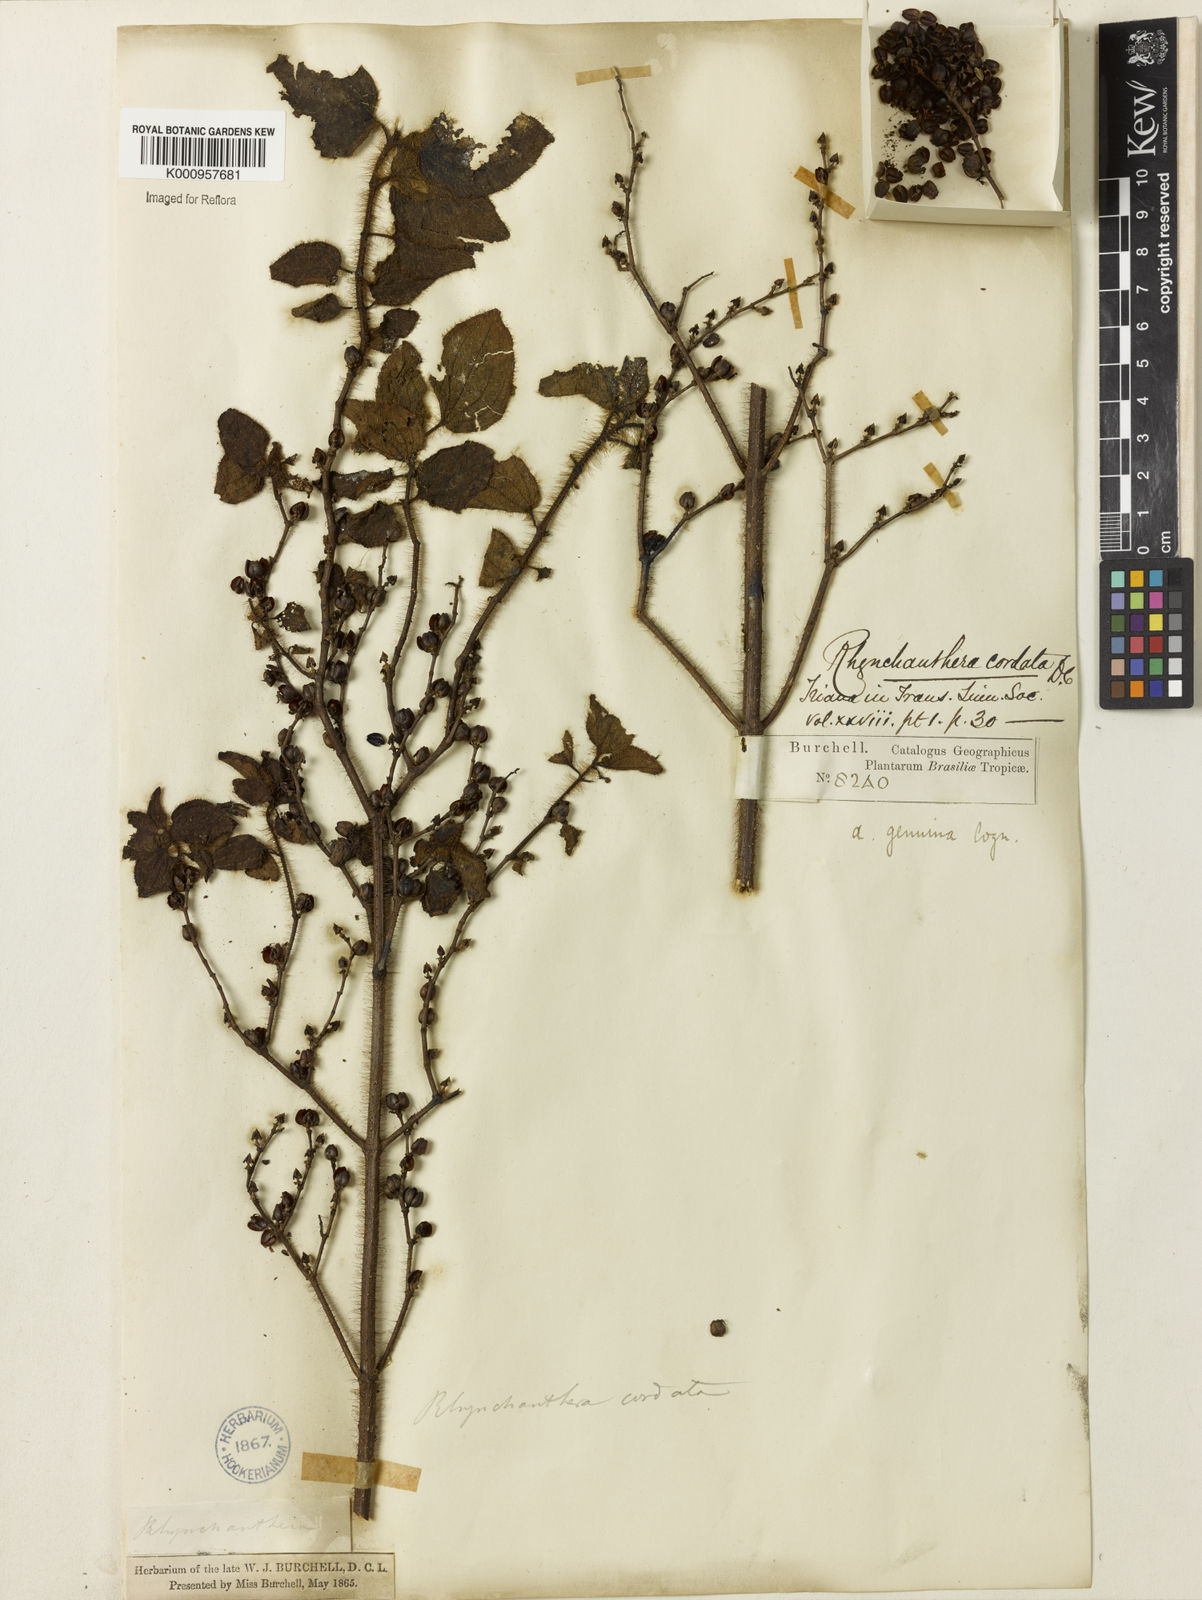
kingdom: Plantae
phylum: Tracheophyta
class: Magnoliopsida
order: Myrtales
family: Melastomataceae
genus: Rhynchanthera
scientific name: Rhynchanthera cordata
